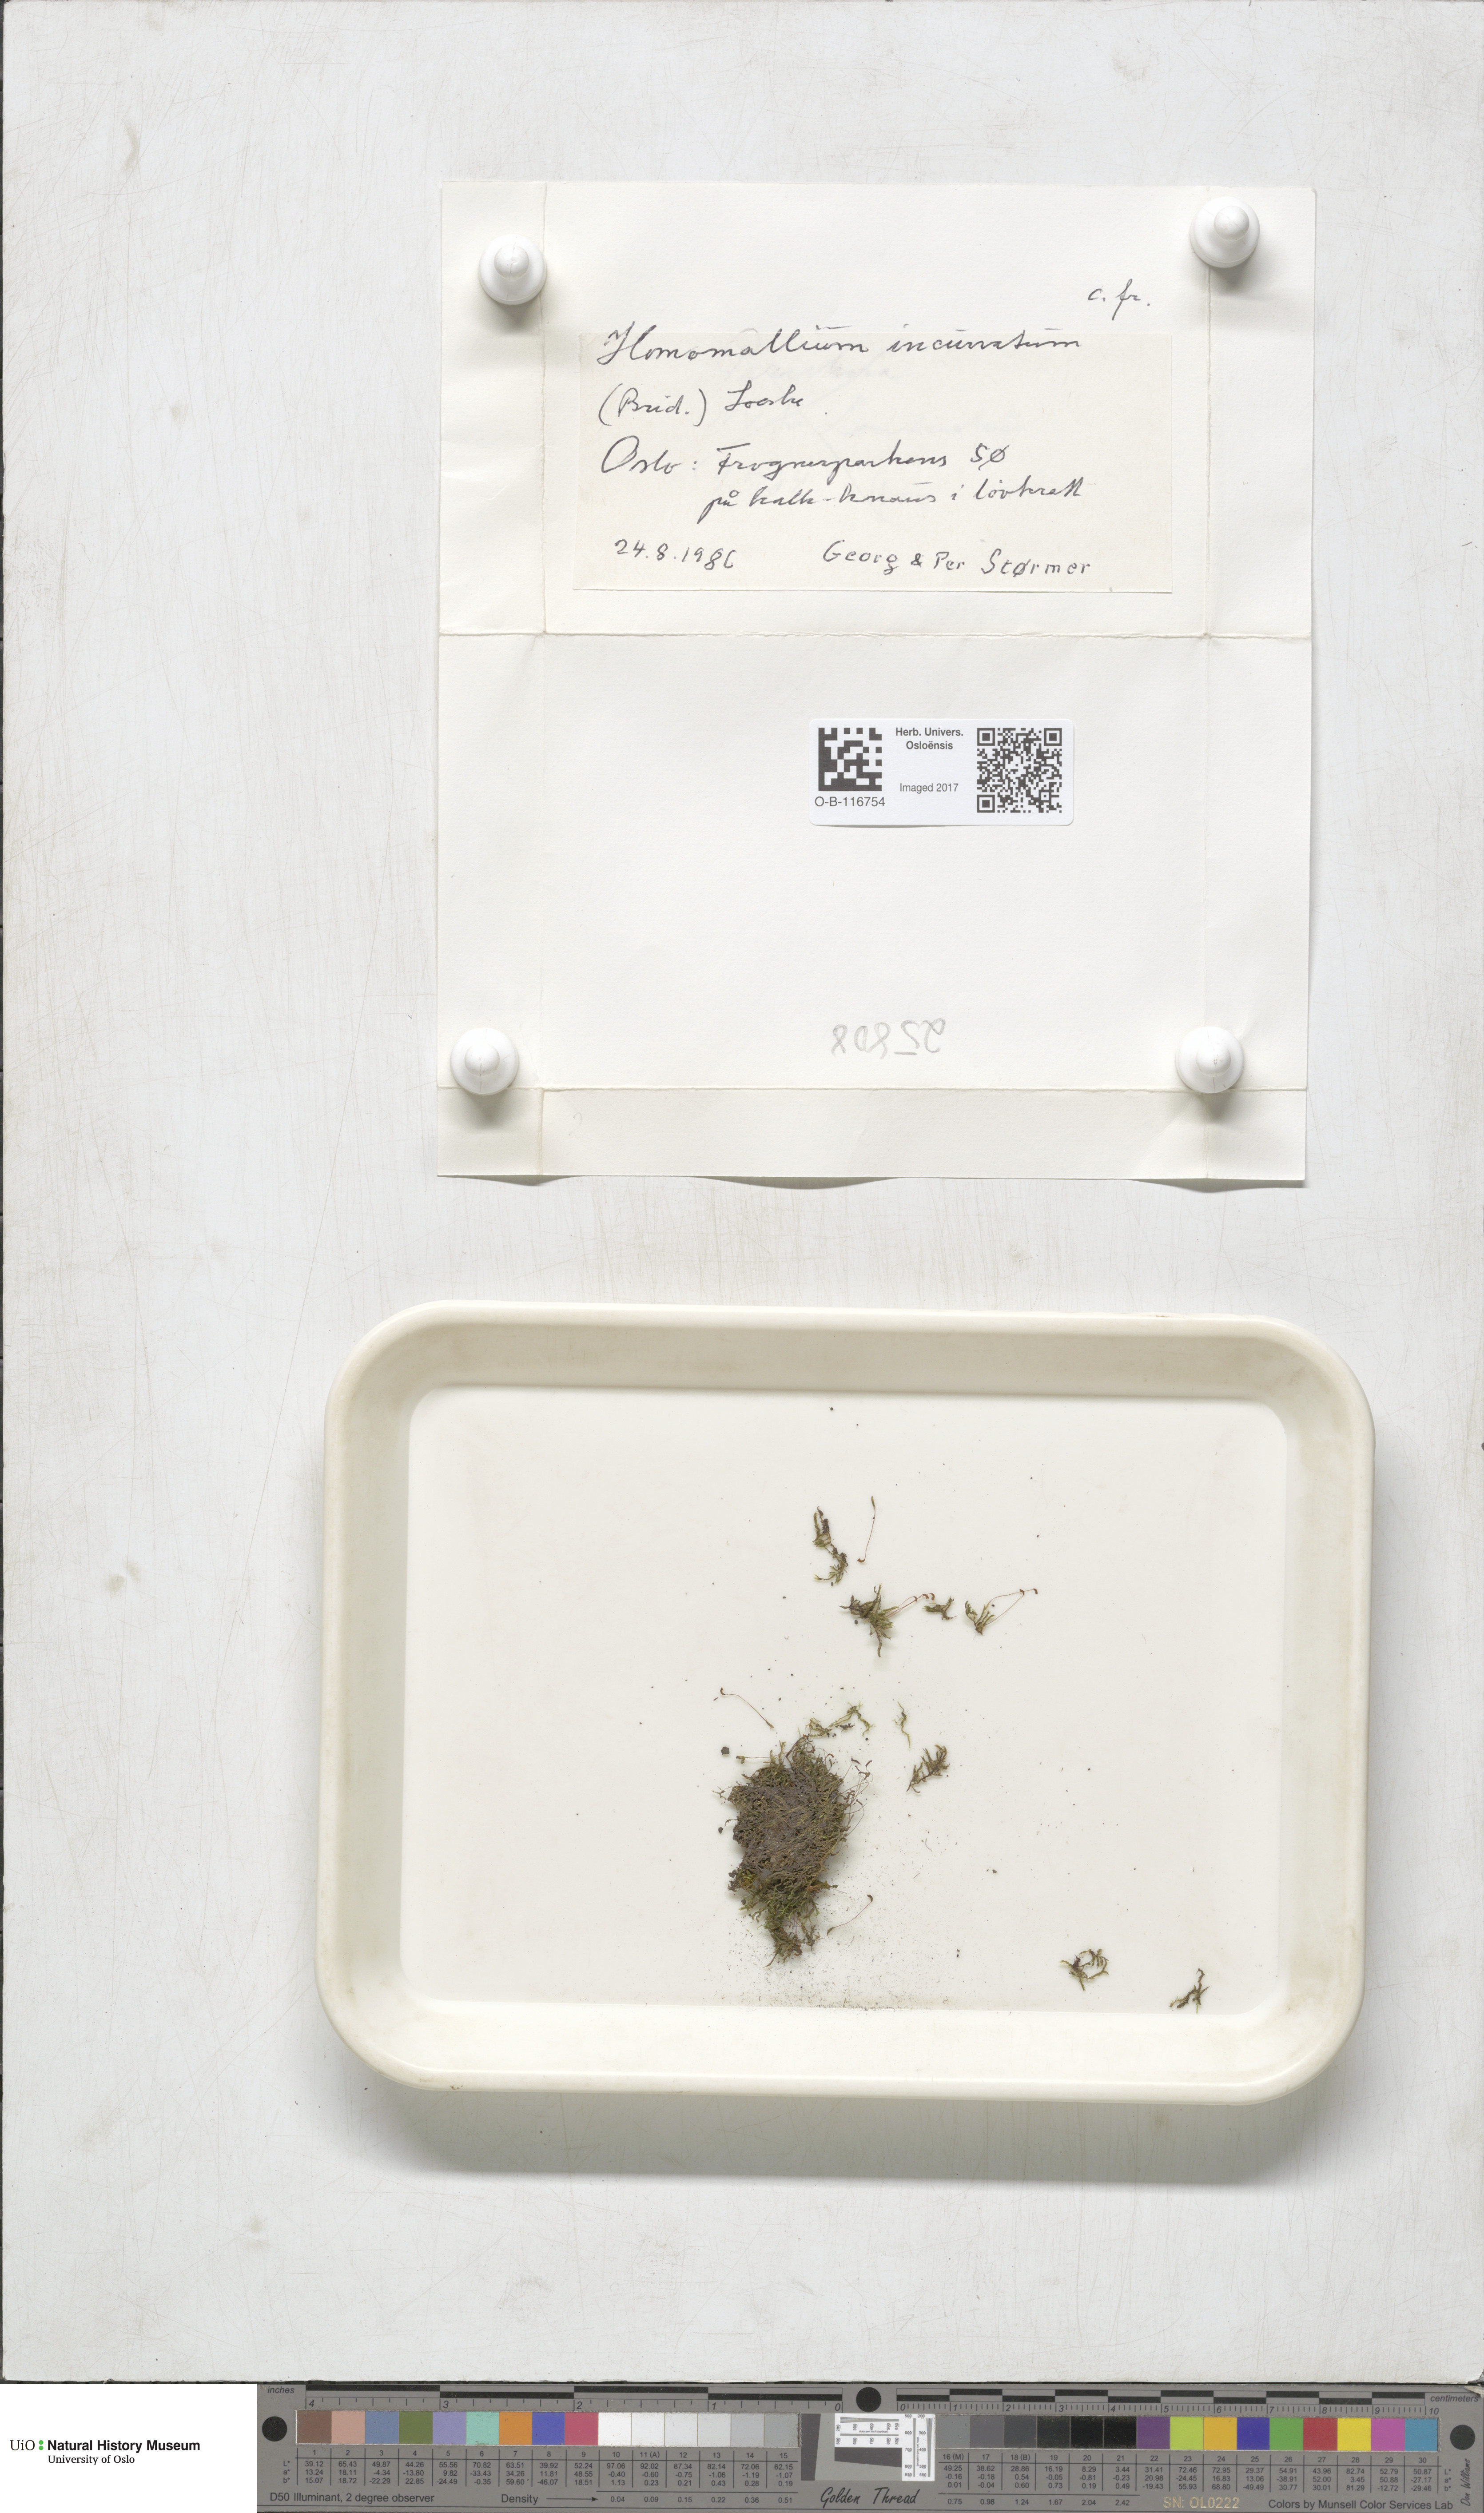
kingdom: Plantae
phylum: Bryophyta
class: Bryopsida
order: Hypnales
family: Pylaisiaceae
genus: Homomallium
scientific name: Homomallium incurvatum
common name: Incurved feather-moss
